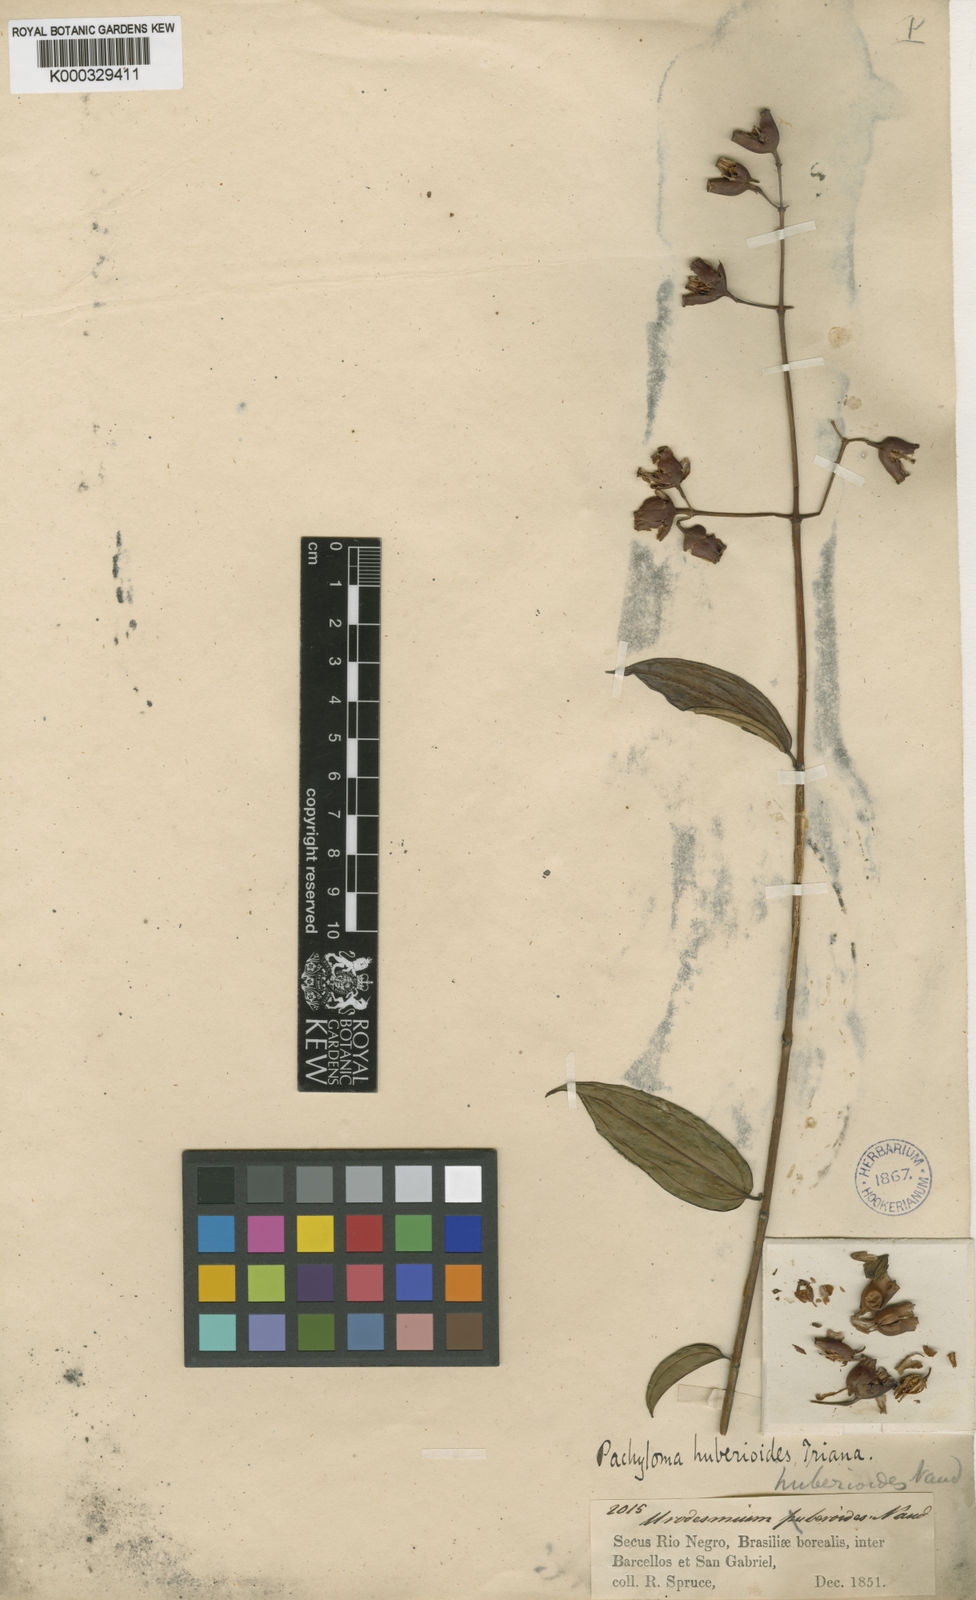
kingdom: Plantae
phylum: Tracheophyta
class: Magnoliopsida
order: Myrtales
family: Melastomataceae
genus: Pachyloma
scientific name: Pachyloma huberioides
